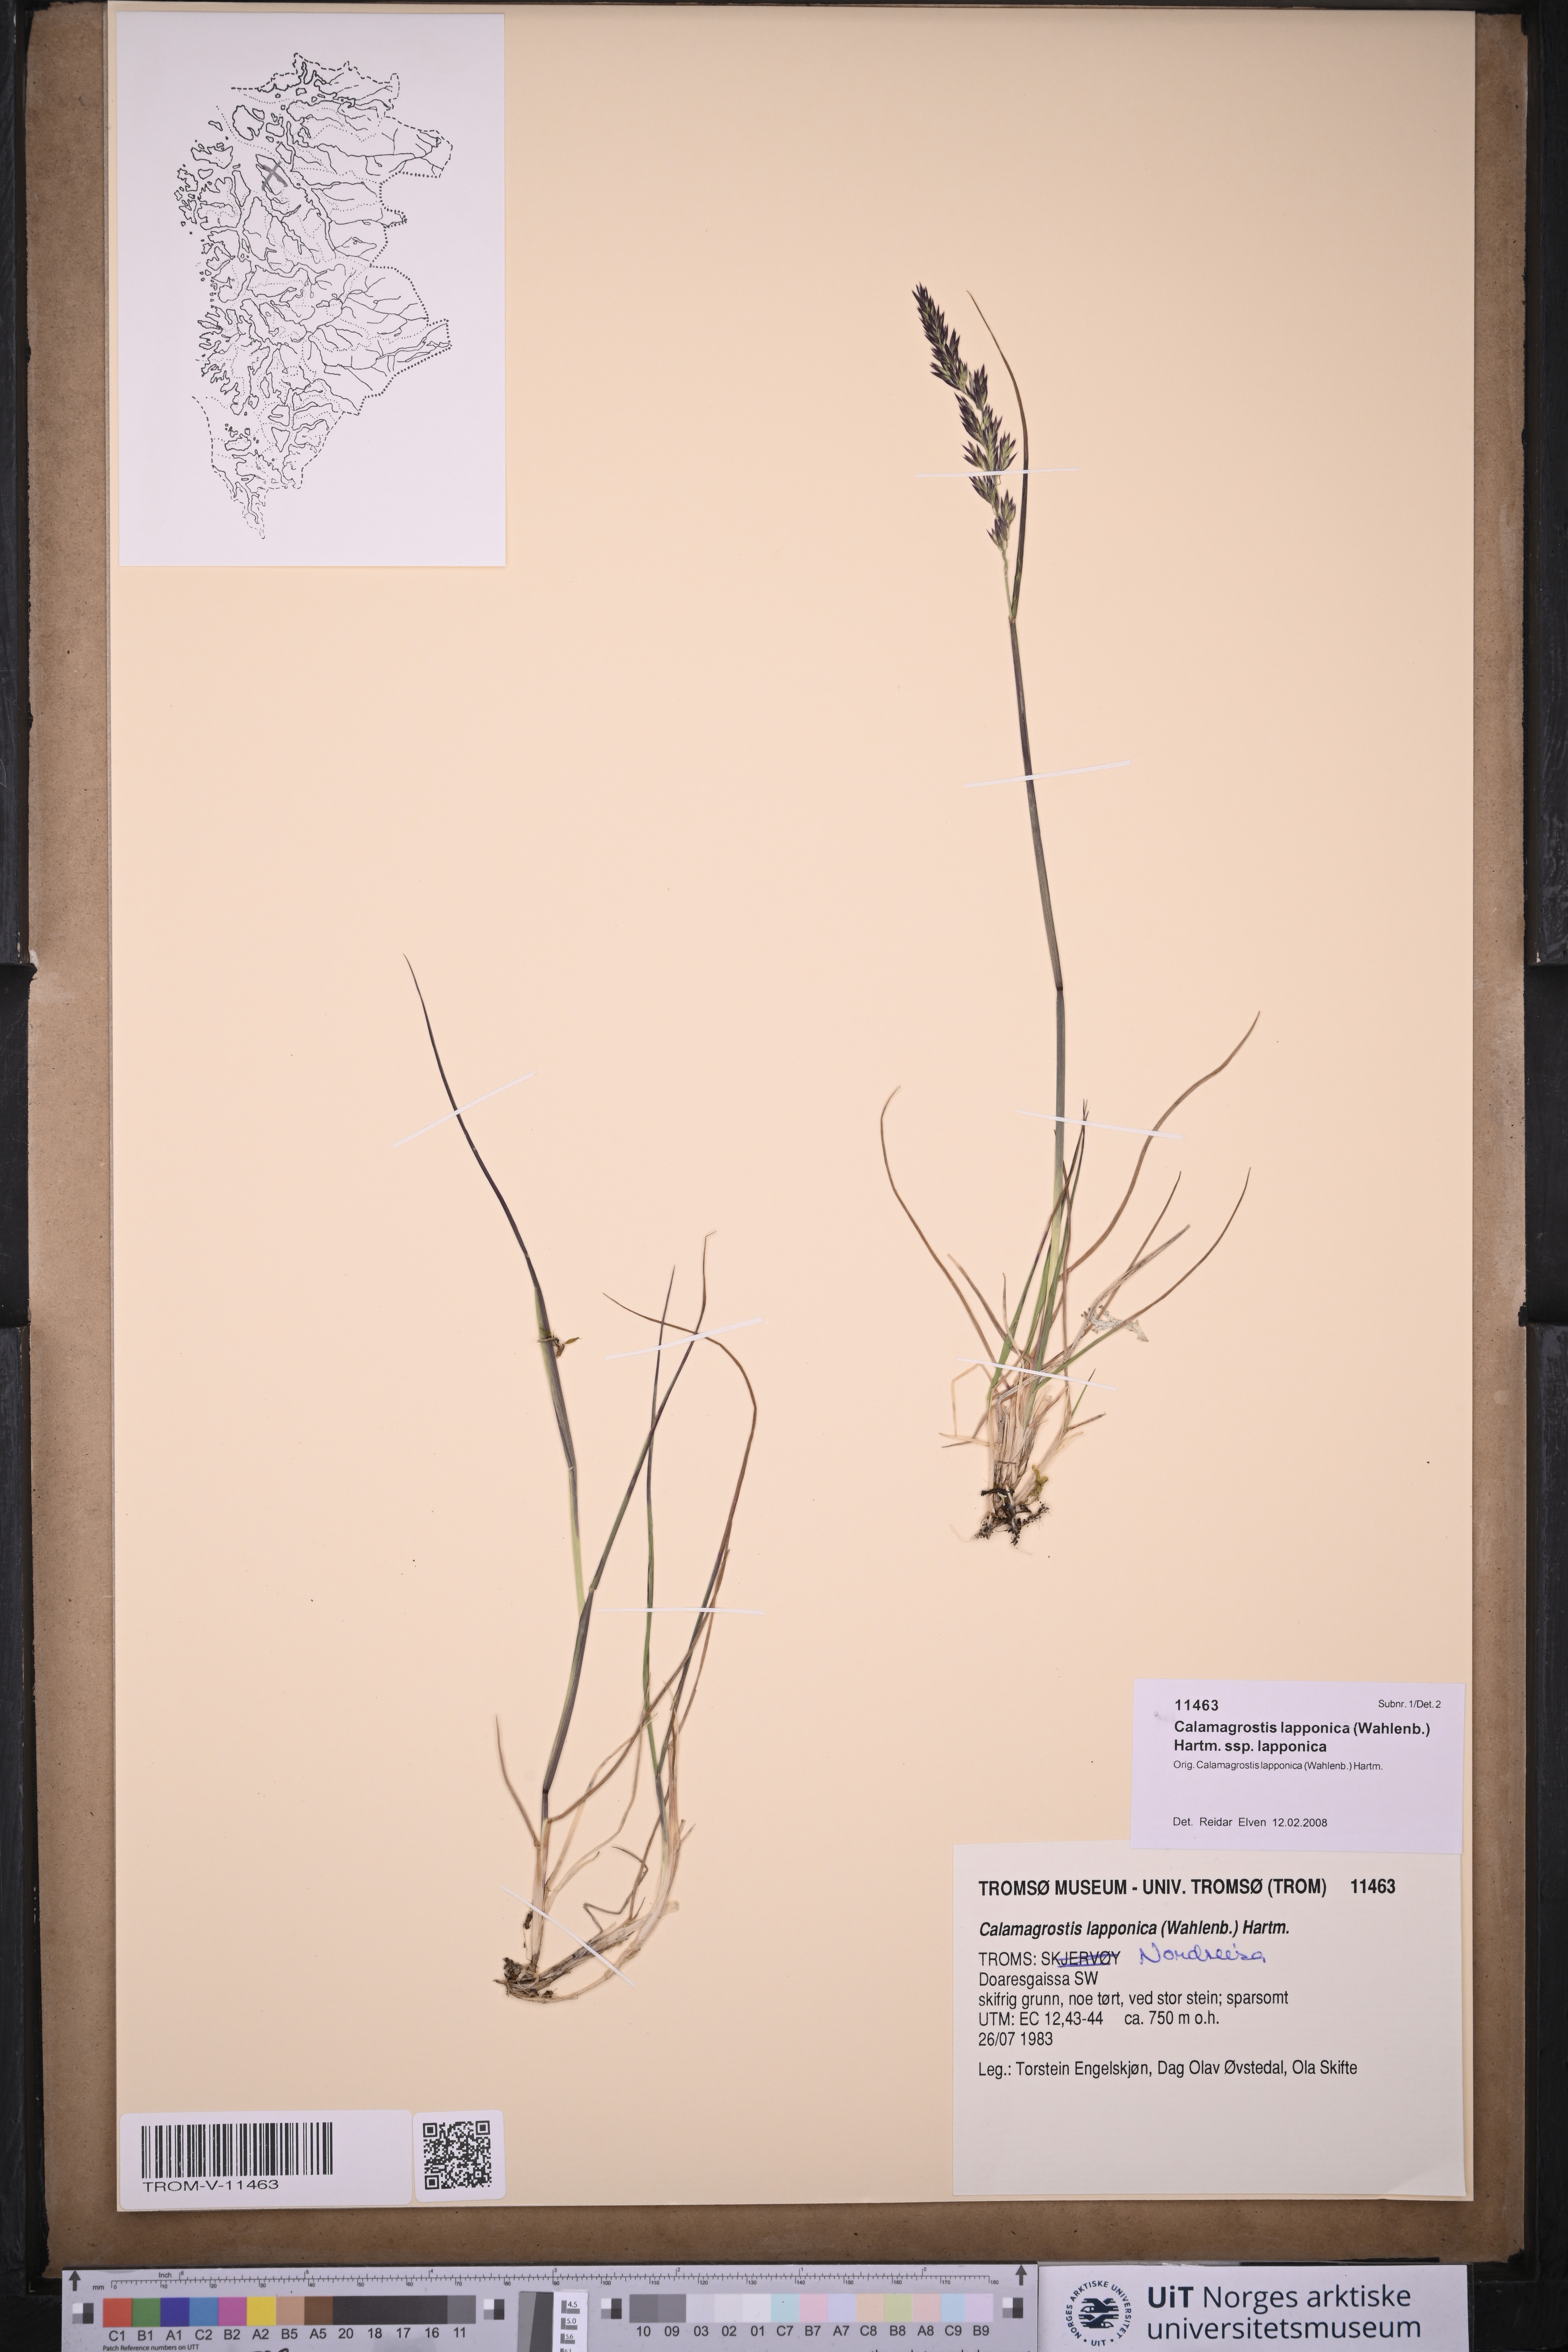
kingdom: Plantae
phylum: Tracheophyta
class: Liliopsida
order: Poales
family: Poaceae
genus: Calamagrostis
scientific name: Calamagrostis lapponica
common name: Lapland reedgrass
